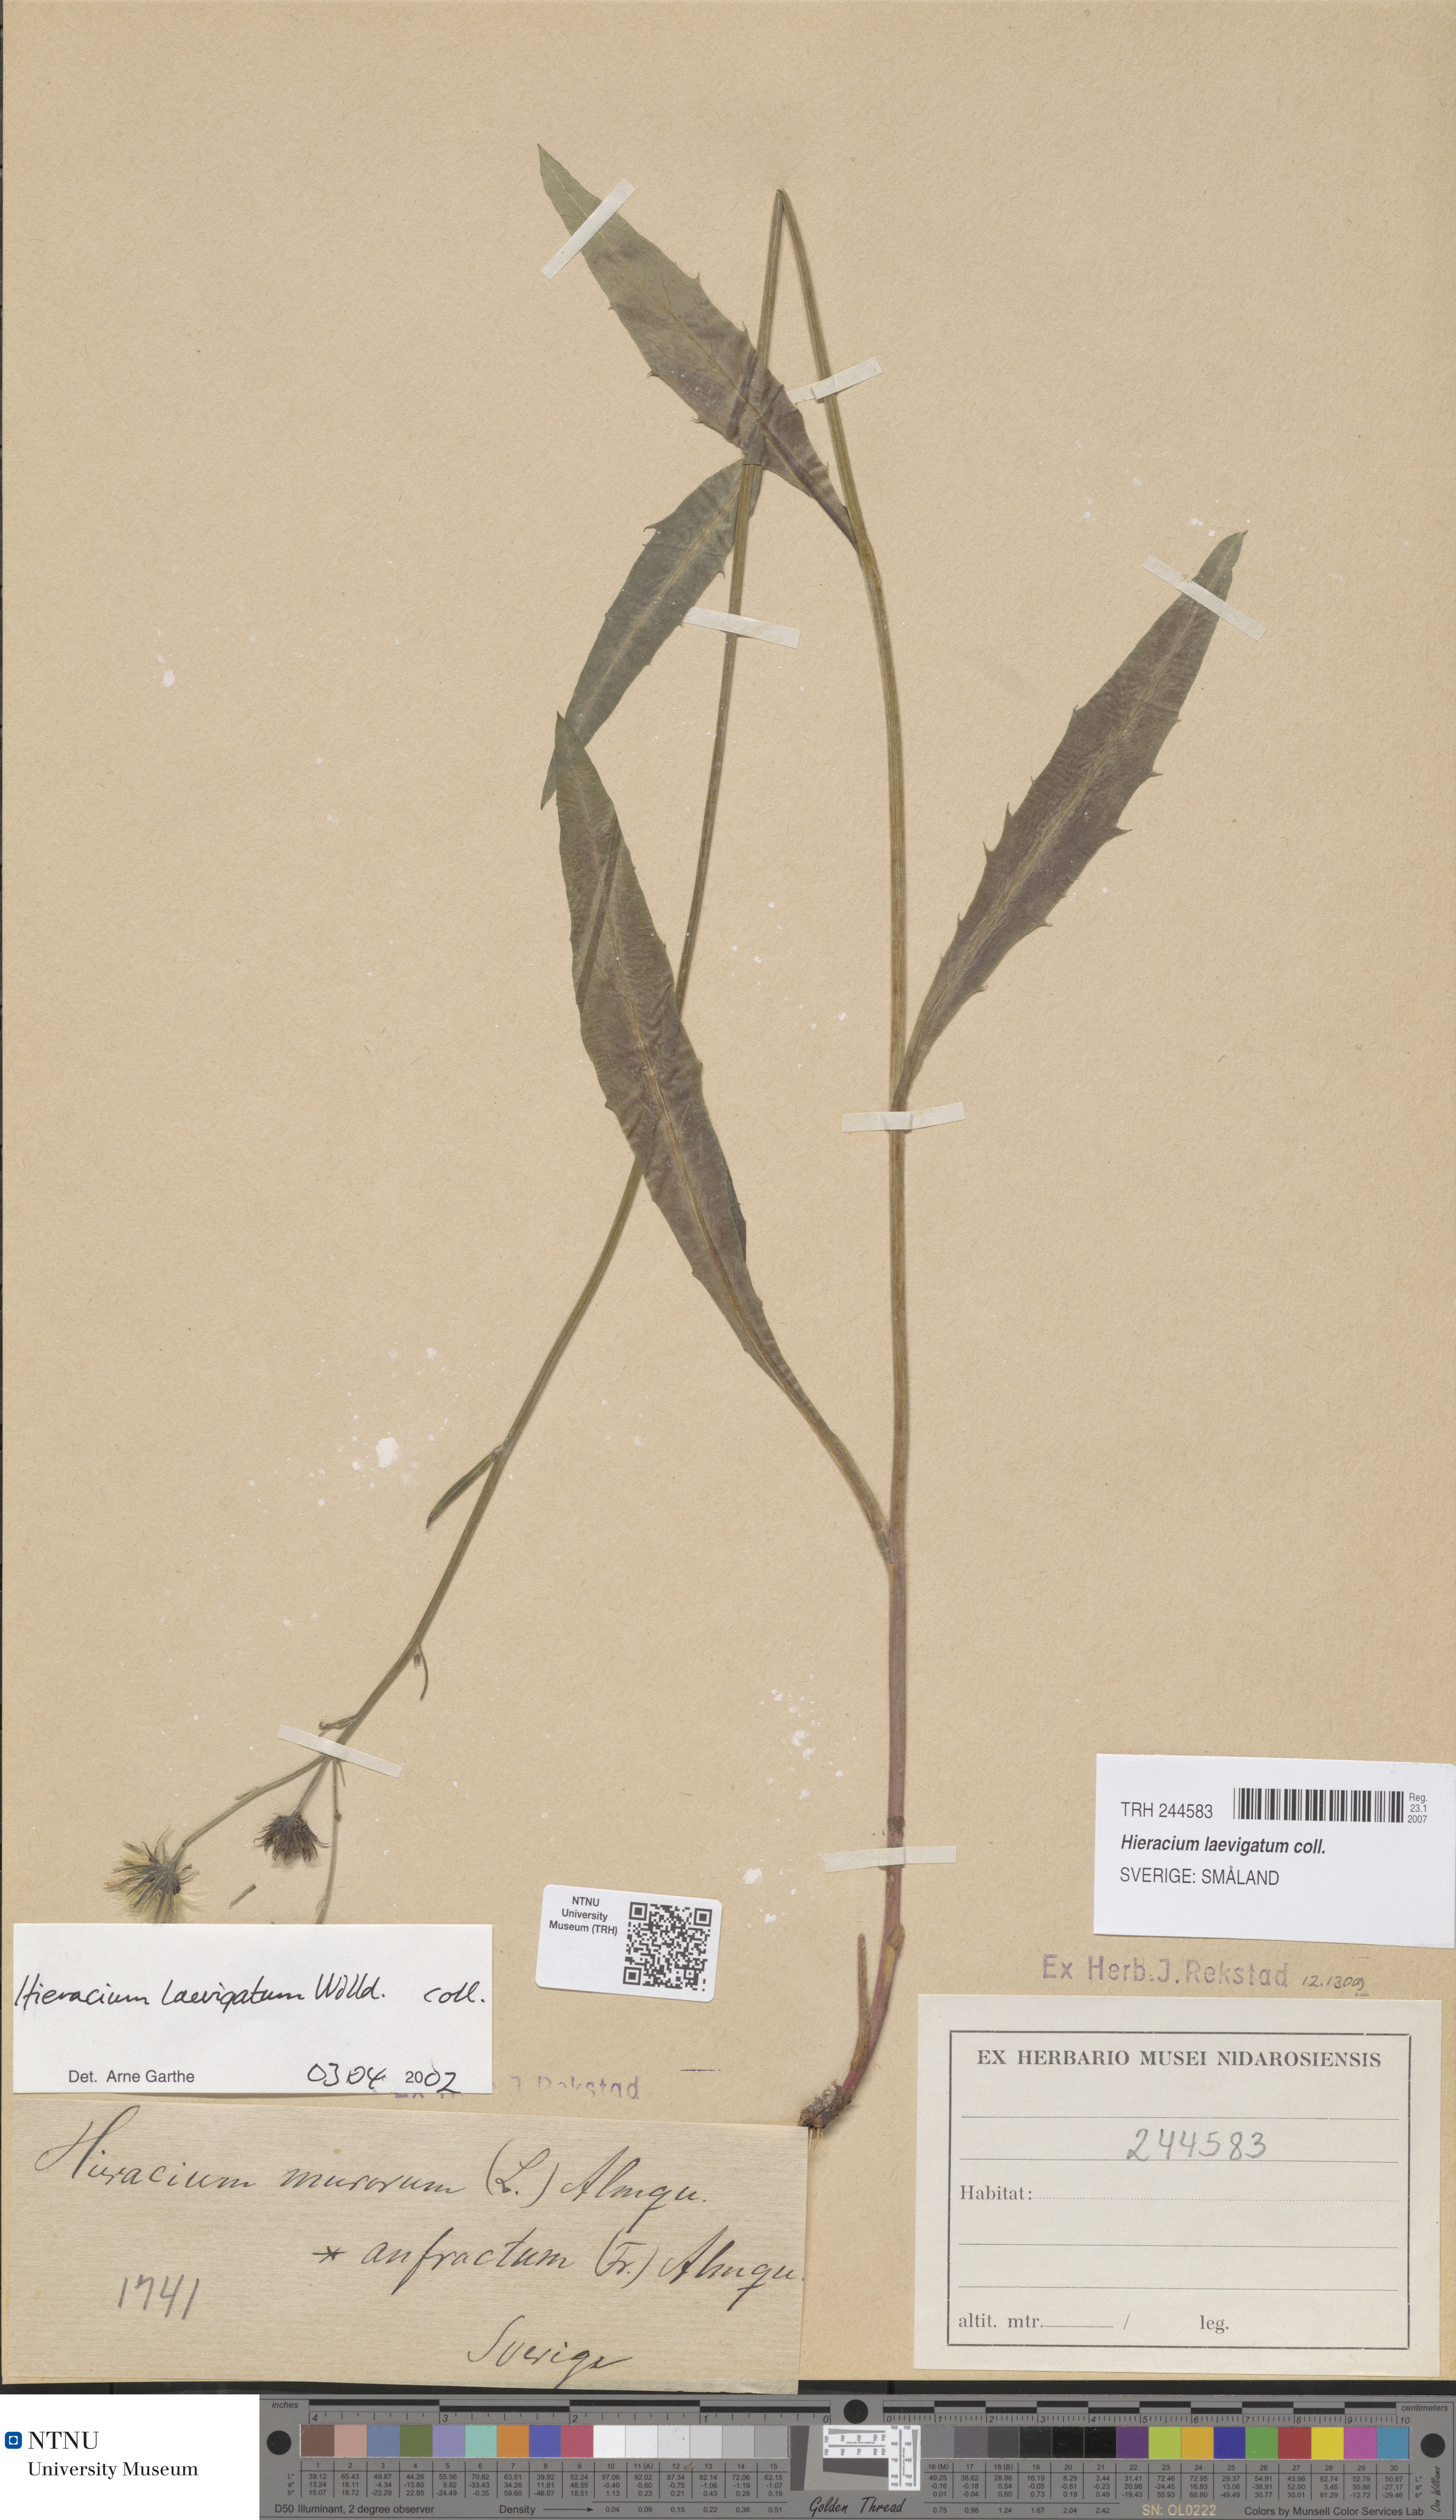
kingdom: Plantae
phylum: Tracheophyta
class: Magnoliopsida
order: Asterales
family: Asteraceae
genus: Hieracium
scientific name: Hieracium laevigatum
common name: Smooth hawkweed
